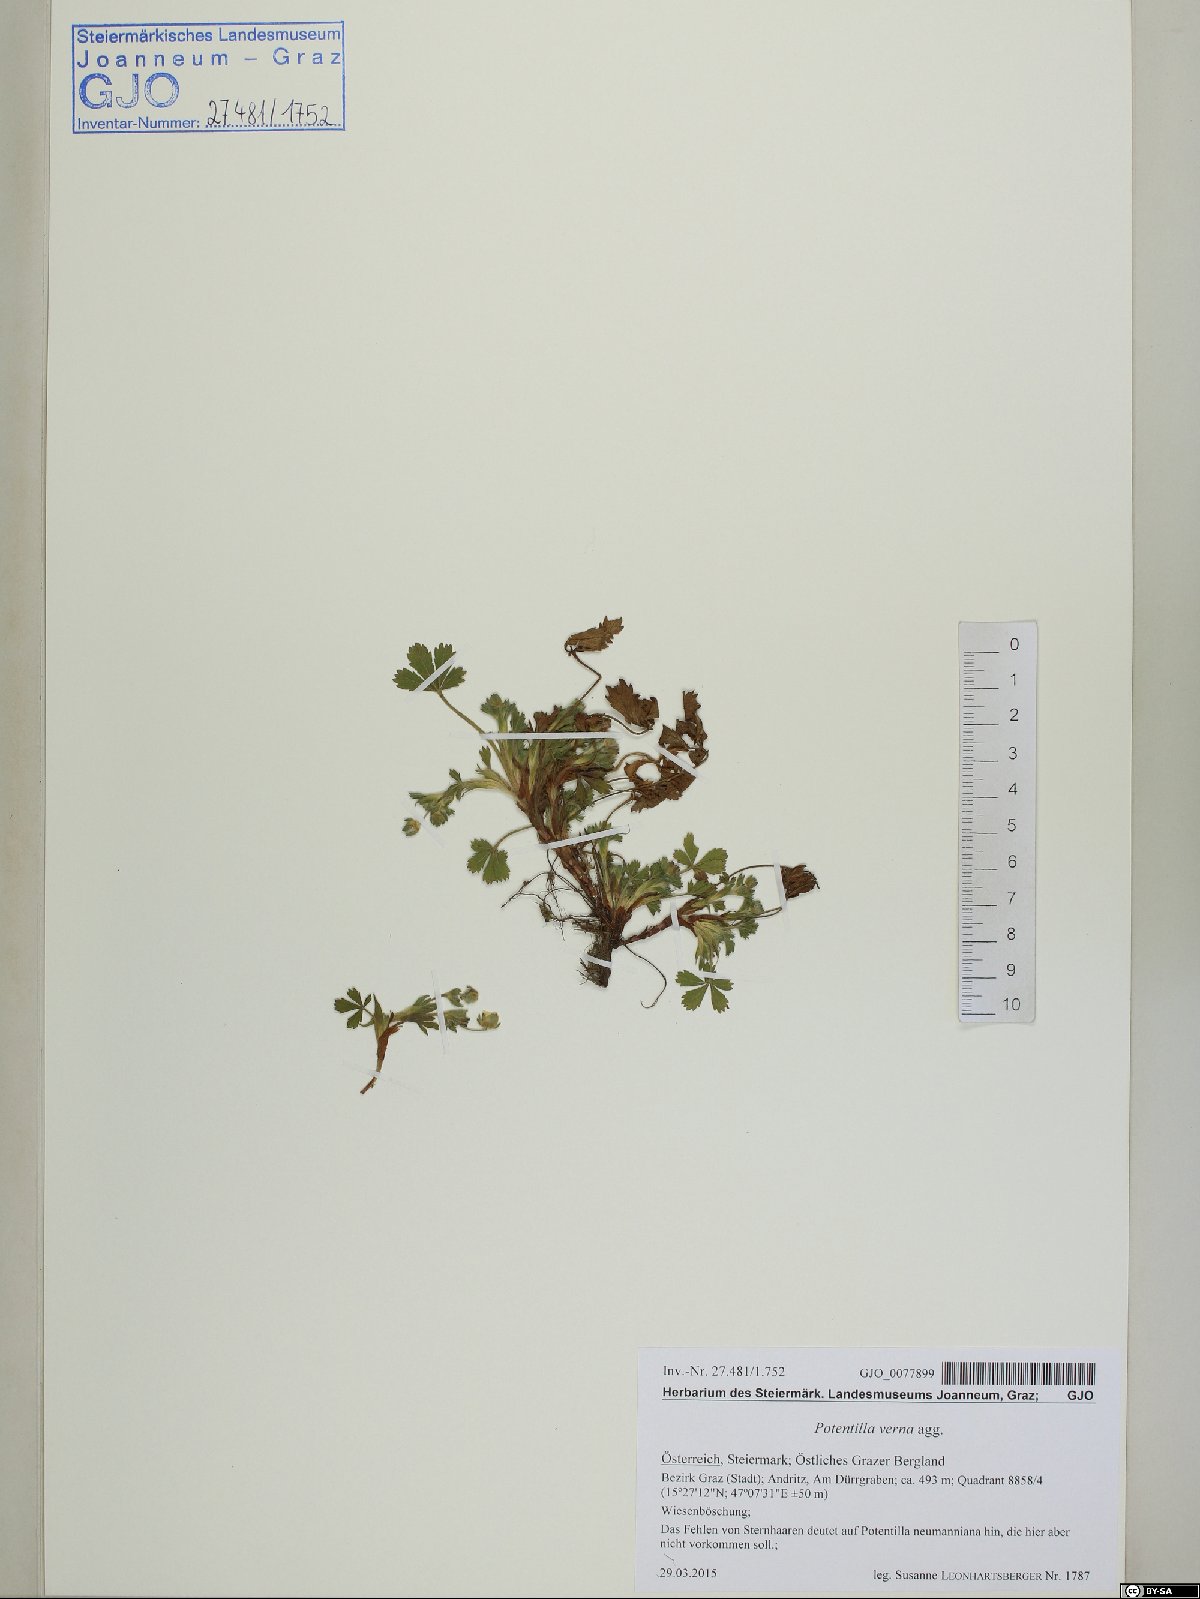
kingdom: Plantae
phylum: Tracheophyta
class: Magnoliopsida
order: Rosales
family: Rosaceae
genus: Potentilla
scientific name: Potentilla verna
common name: Spring cinquefoil
